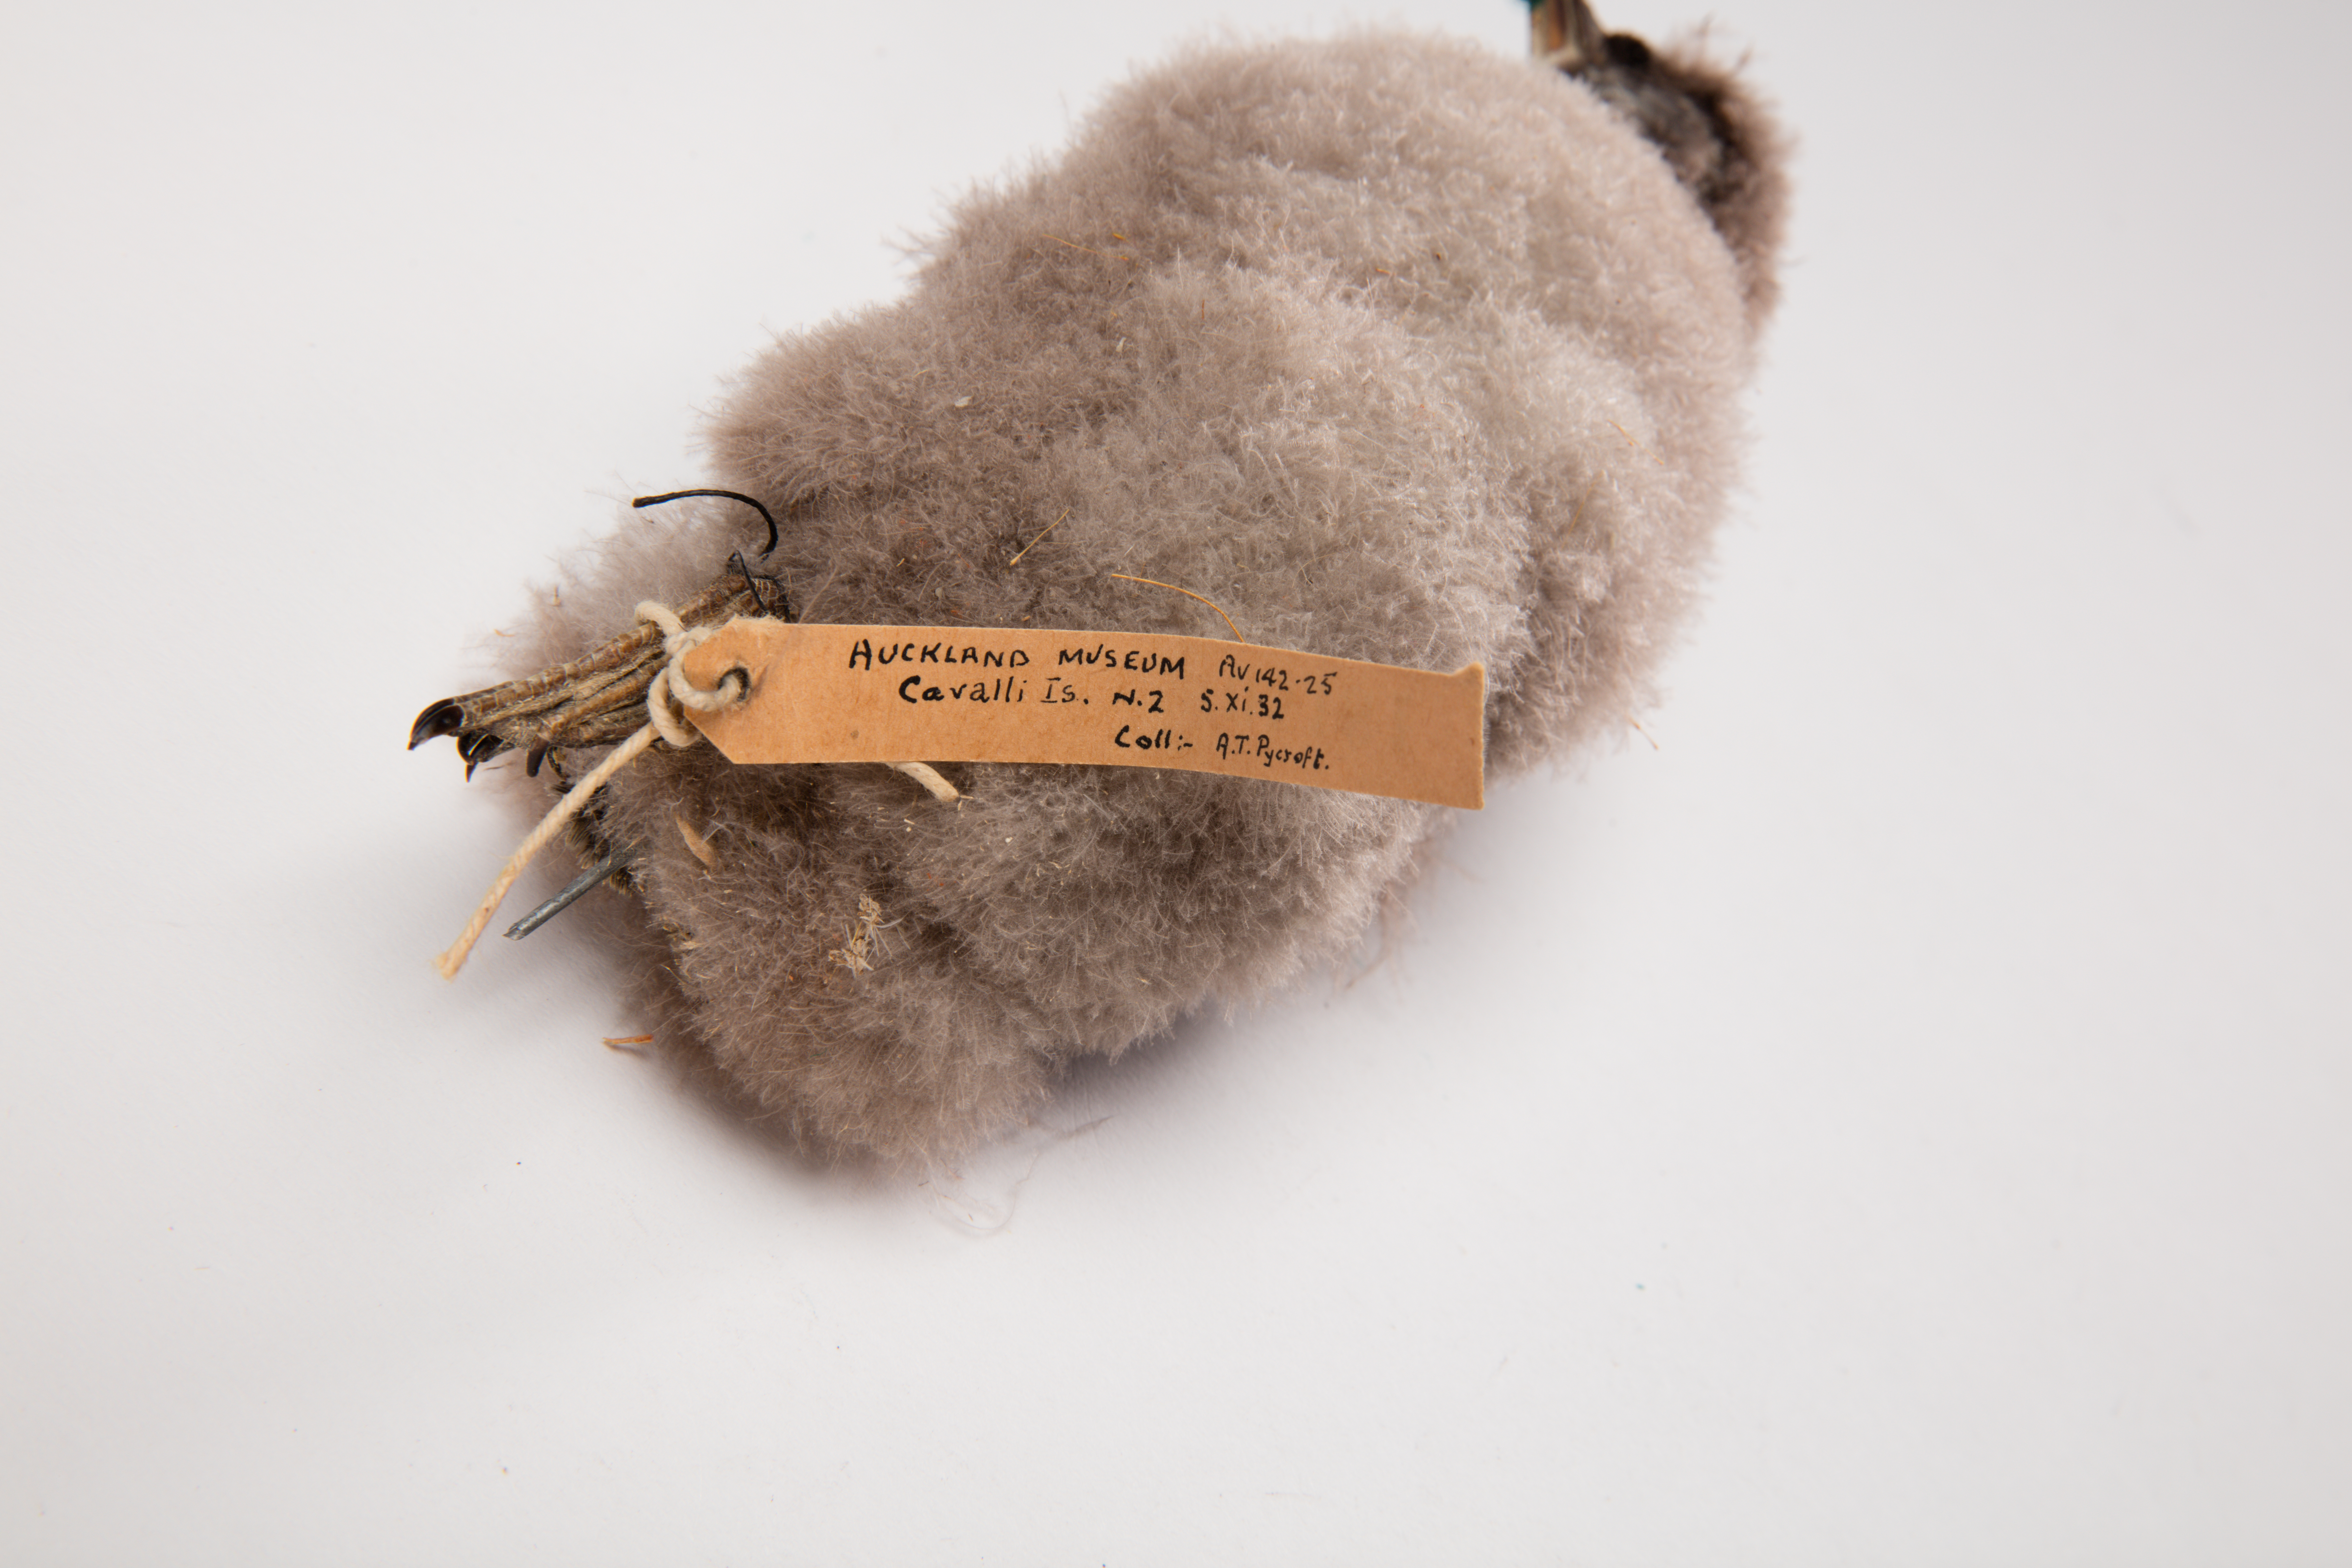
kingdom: Animalia
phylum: Chordata
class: Aves
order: Procellariiformes
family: Pelecanoididae
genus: Pelecanoides
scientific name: Pelecanoides urinatrix
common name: Common diving-petrel
